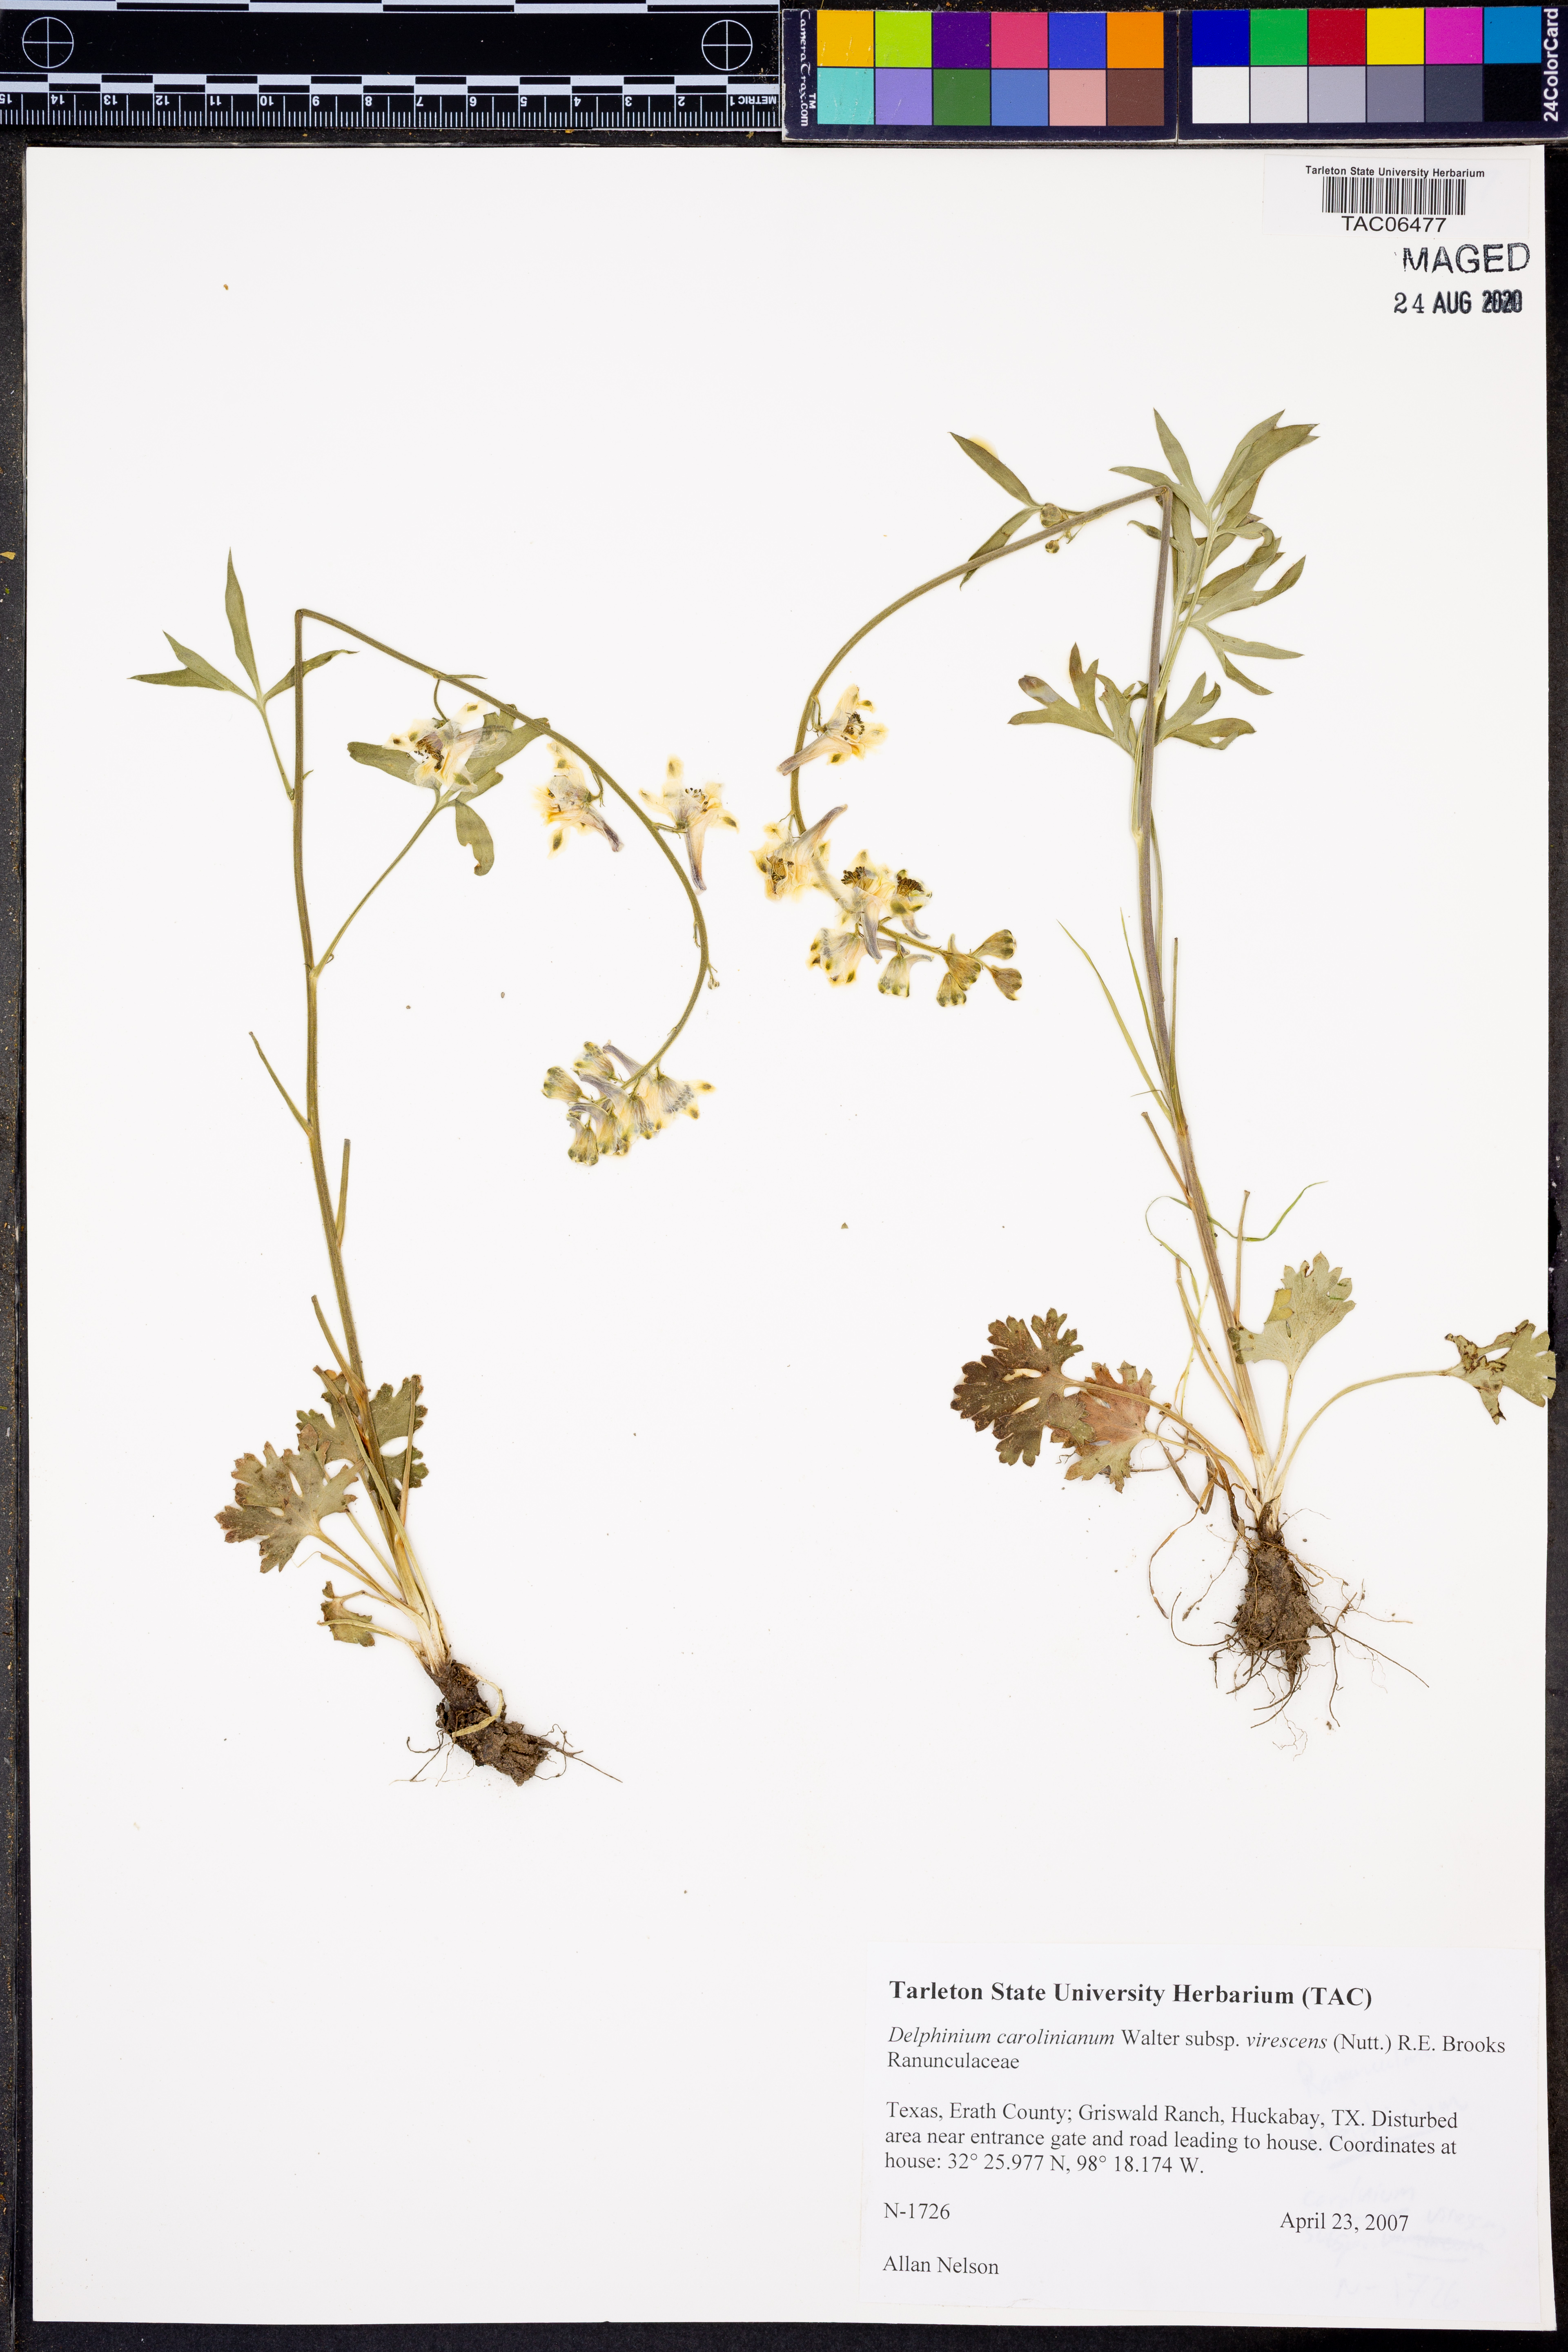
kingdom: Plantae
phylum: Tracheophyta
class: Magnoliopsida
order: Ranunculales
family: Ranunculaceae
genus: Delphinium
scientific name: Delphinium carolinianum
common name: Carolina larkspur
